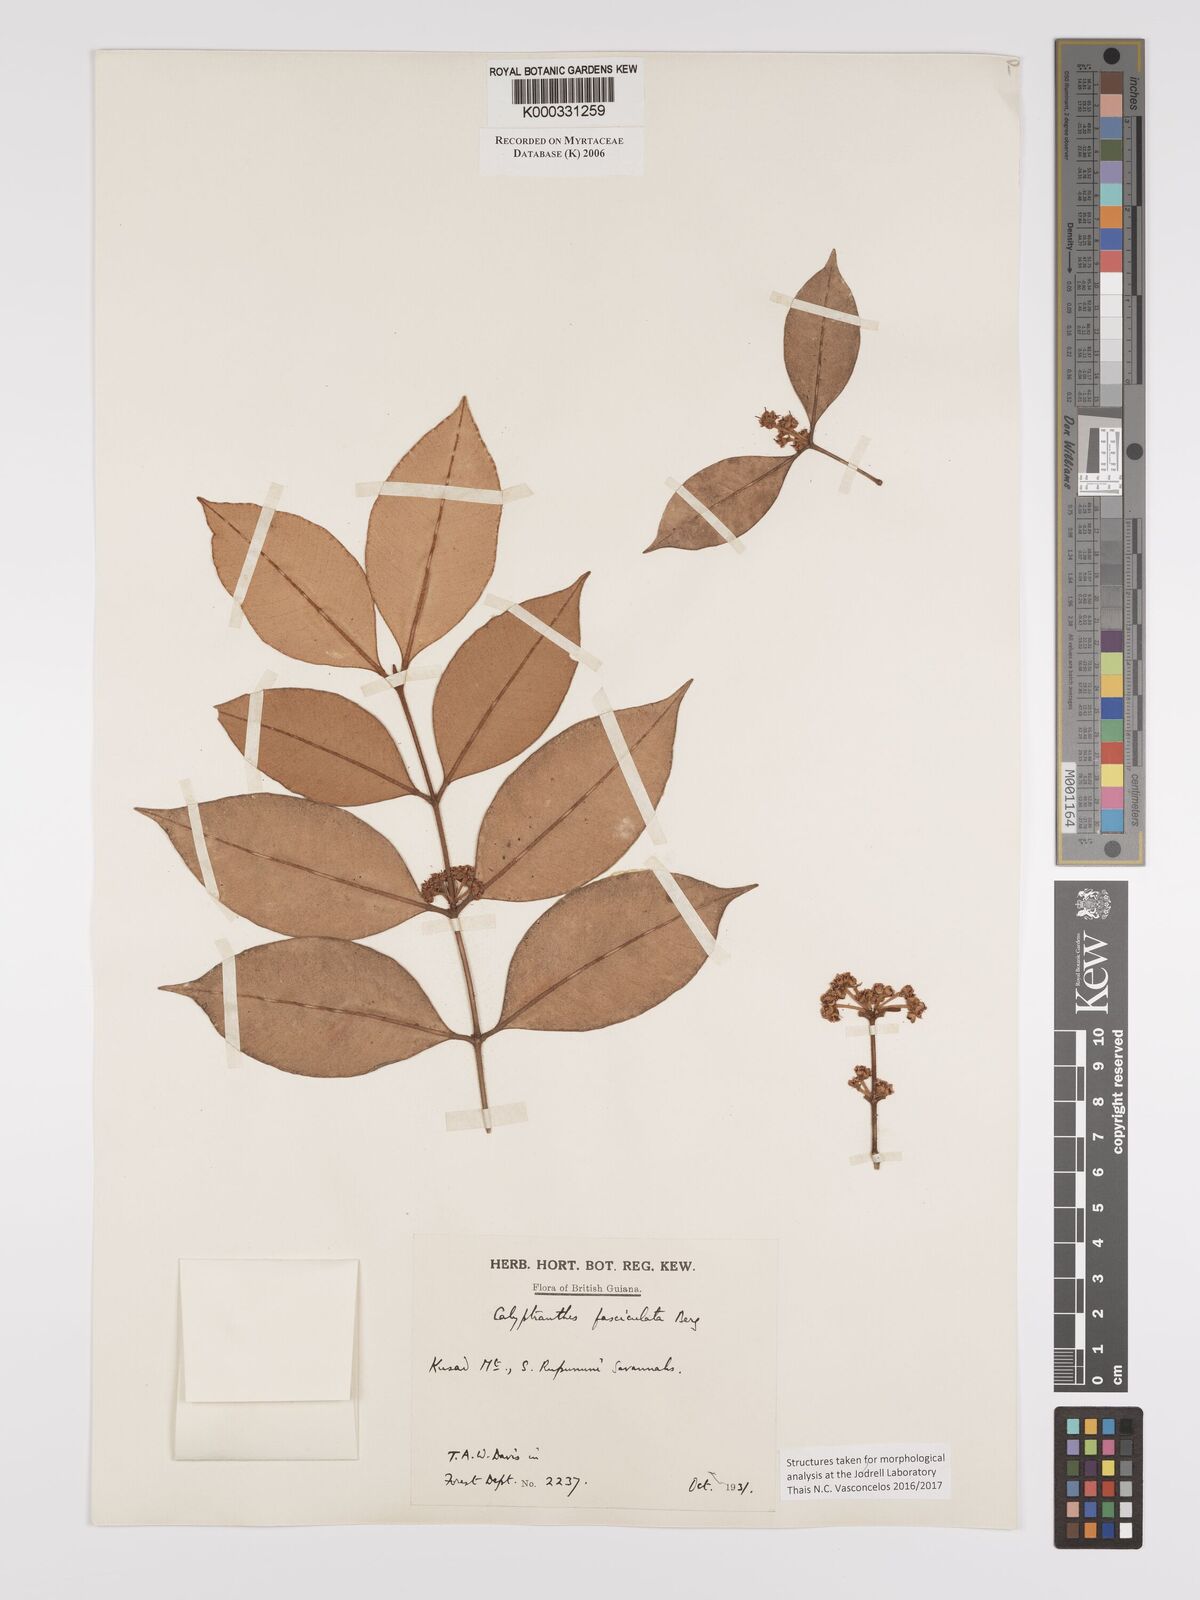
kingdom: Plantae
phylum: Tracheophyta
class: Magnoliopsida
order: Myrtales
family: Myrtaceae
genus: Myrcia
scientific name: Myrcia fasciculata
